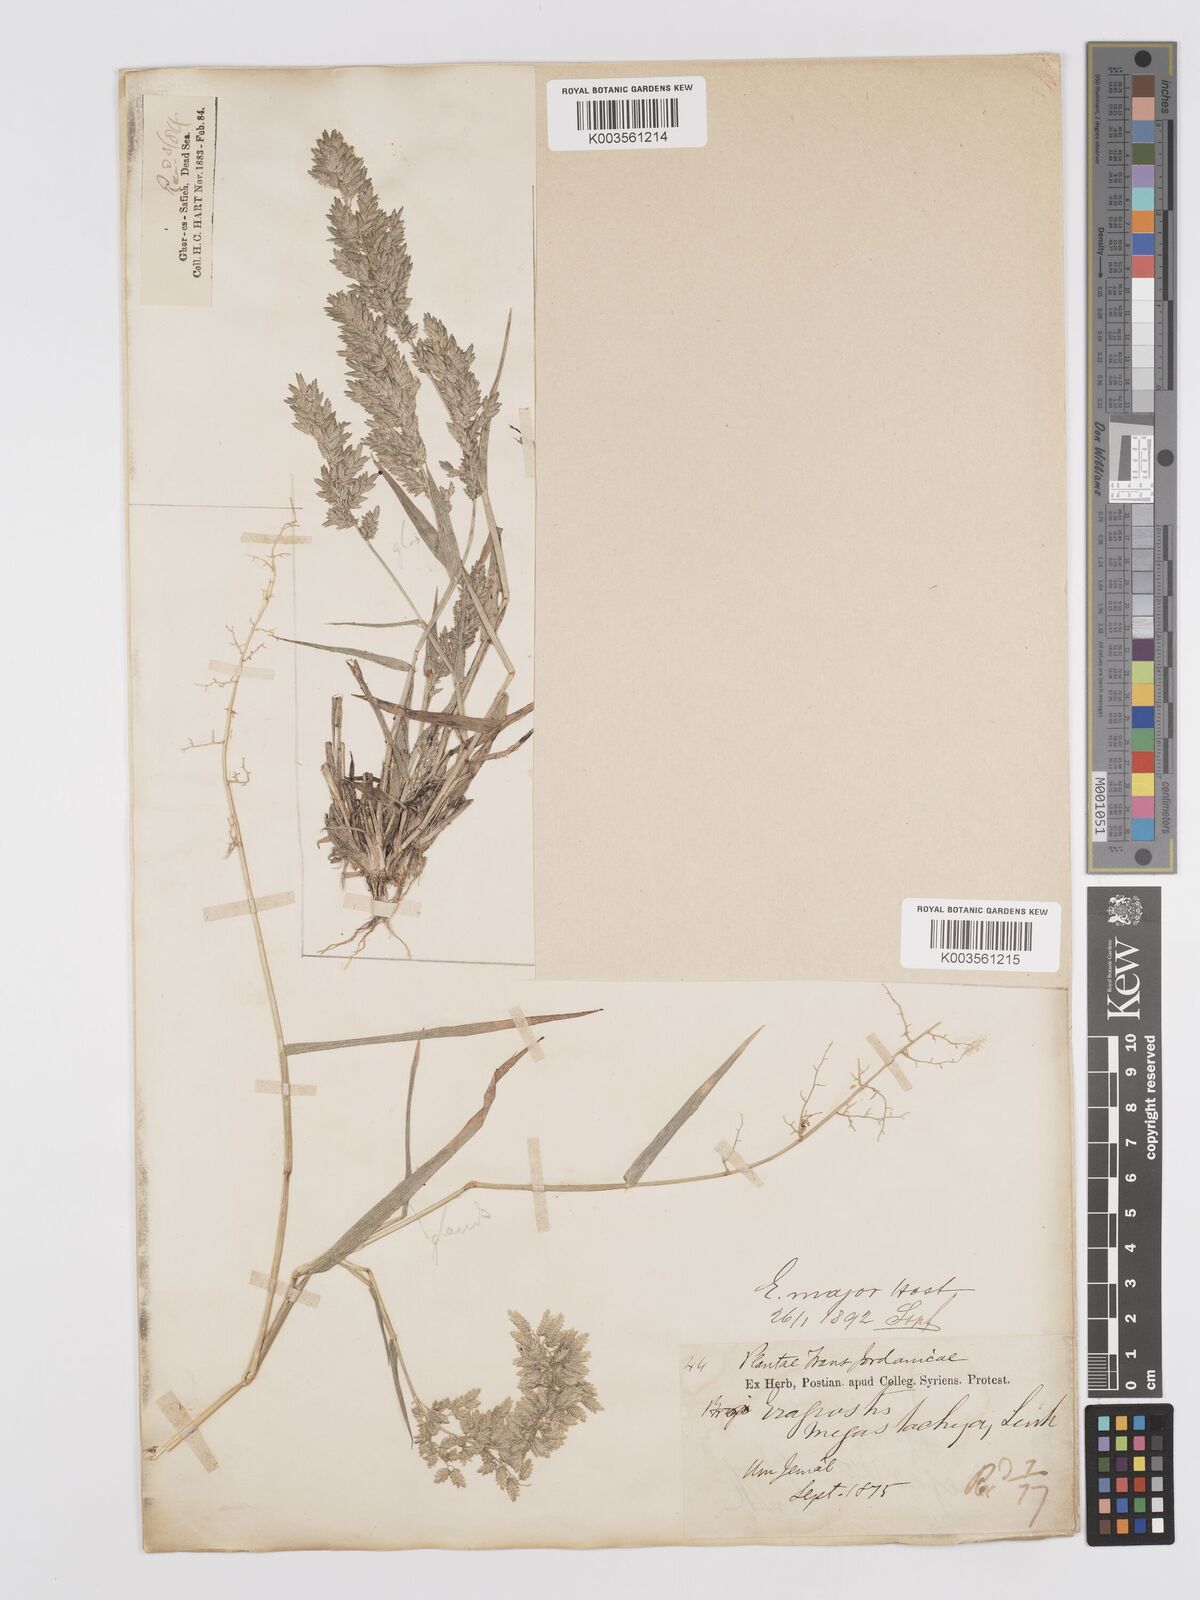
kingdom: Plantae
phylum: Tracheophyta
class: Liliopsida
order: Poales
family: Poaceae
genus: Eragrostis
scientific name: Eragrostis cilianensis
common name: Stinkgrass
